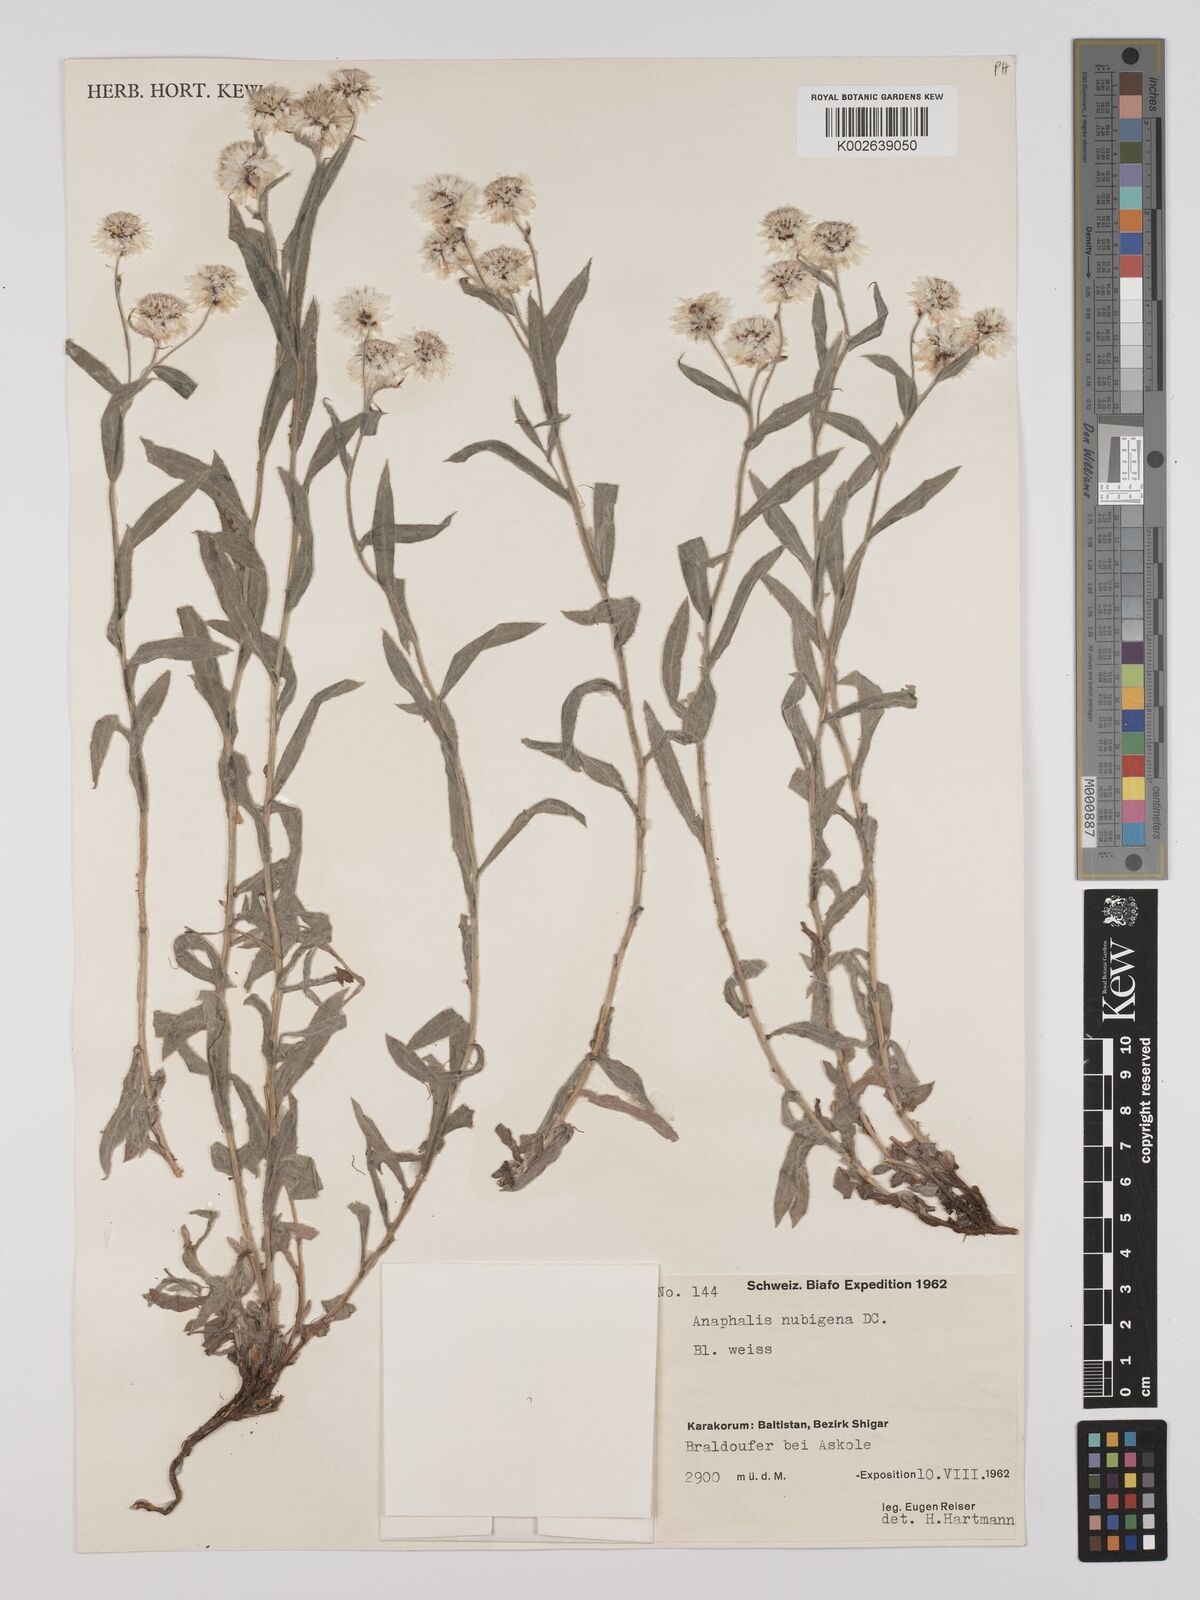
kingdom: Plantae
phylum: Tracheophyta
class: Magnoliopsida
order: Asterales
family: Asteraceae
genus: Anaphalis
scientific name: Anaphalis triplinervis
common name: Pearly everlasting
